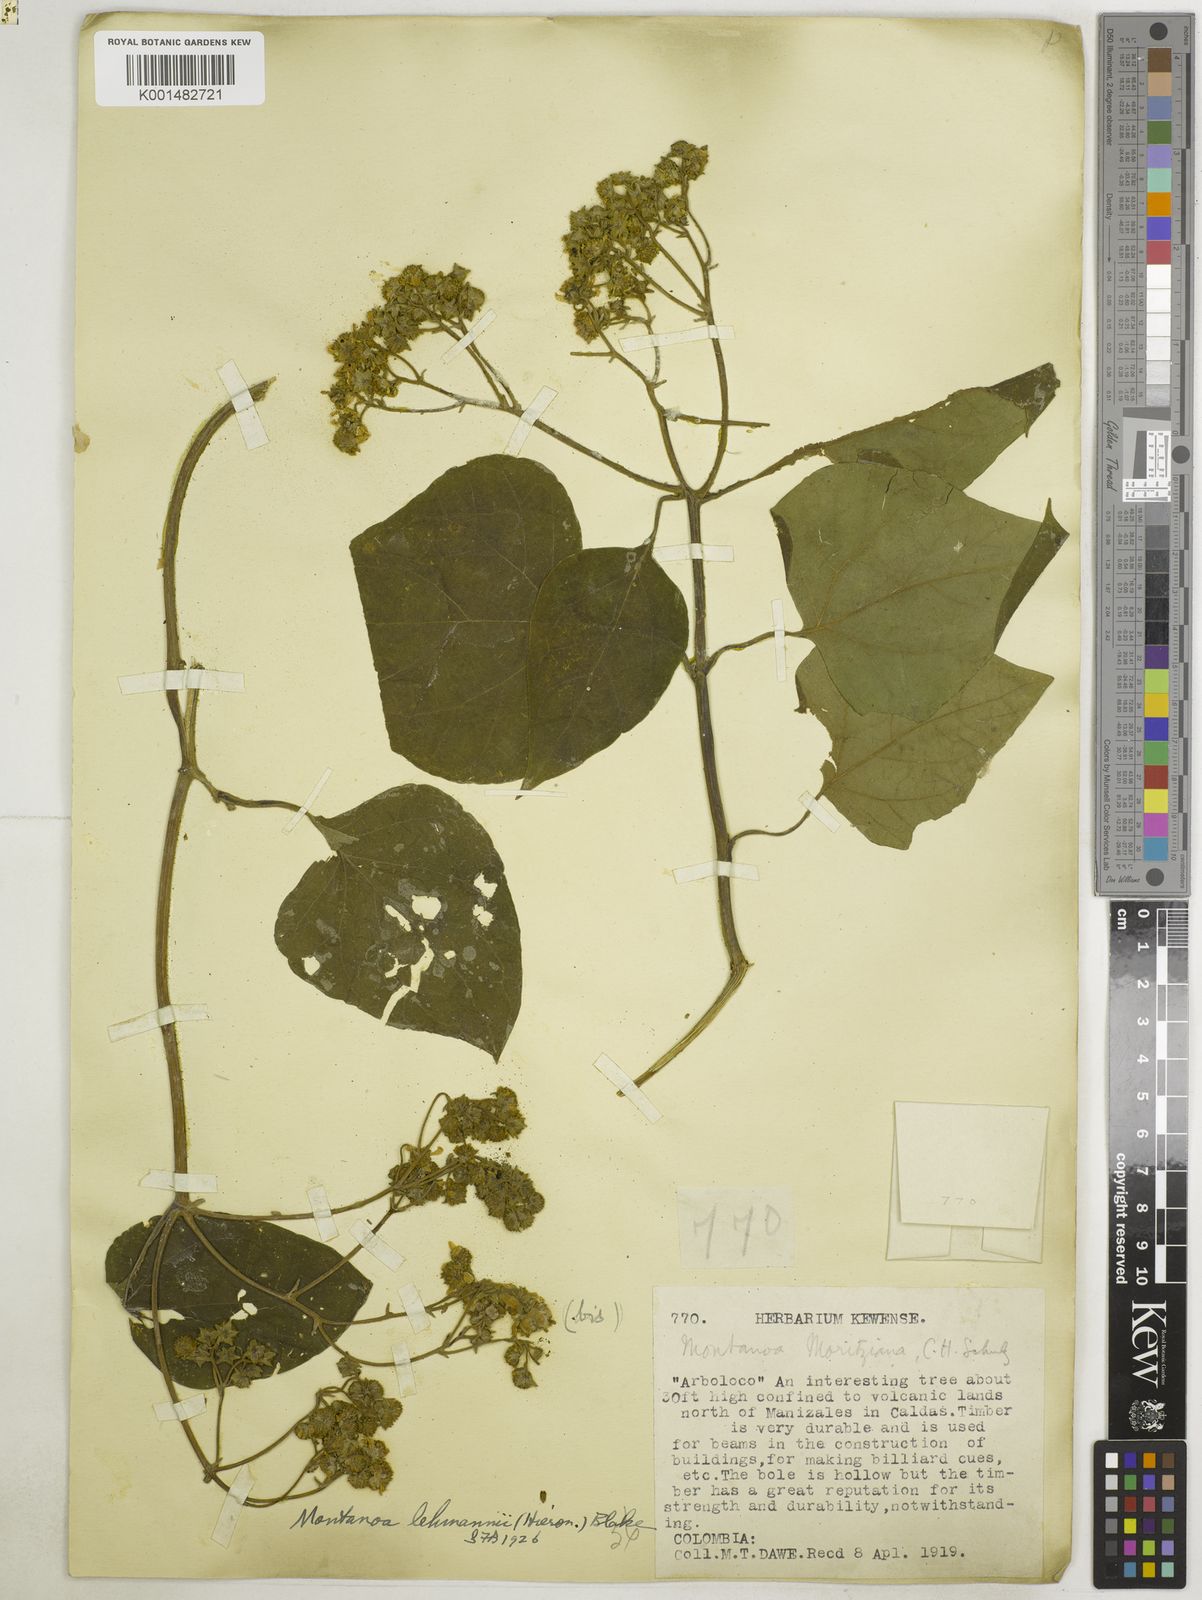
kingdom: Plantae
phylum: Tracheophyta
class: Magnoliopsida
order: Asterales
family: Asteraceae
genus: Montanoa
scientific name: Montanoa quadrangularis
